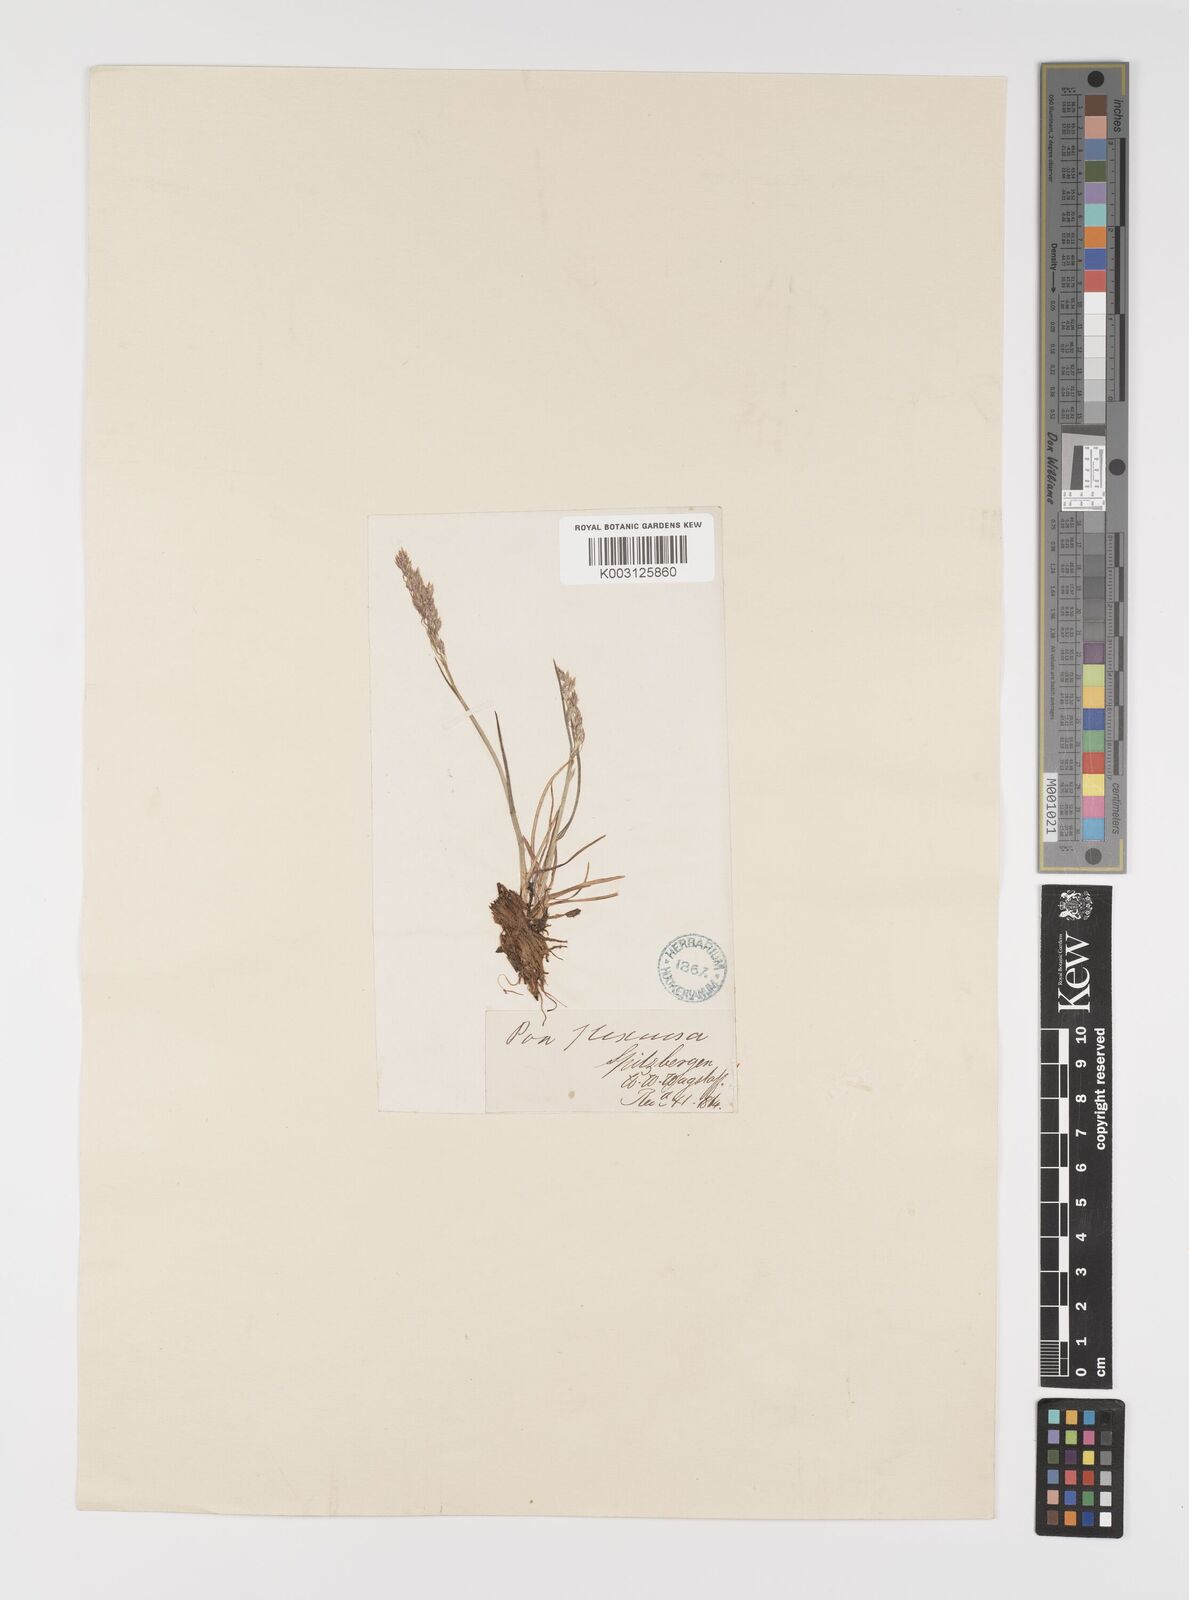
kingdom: Plantae
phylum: Tracheophyta
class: Liliopsida
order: Poales
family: Poaceae
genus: Eragrostis
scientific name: Eragrostis cilianensis
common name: Stinkgrass
